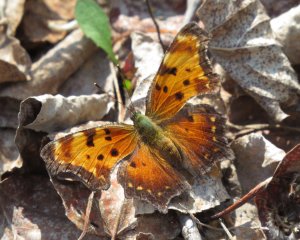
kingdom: Animalia
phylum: Arthropoda
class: Insecta
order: Lepidoptera
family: Nymphalidae
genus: Polygonia
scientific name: Polygonia progne
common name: Gray Comma
